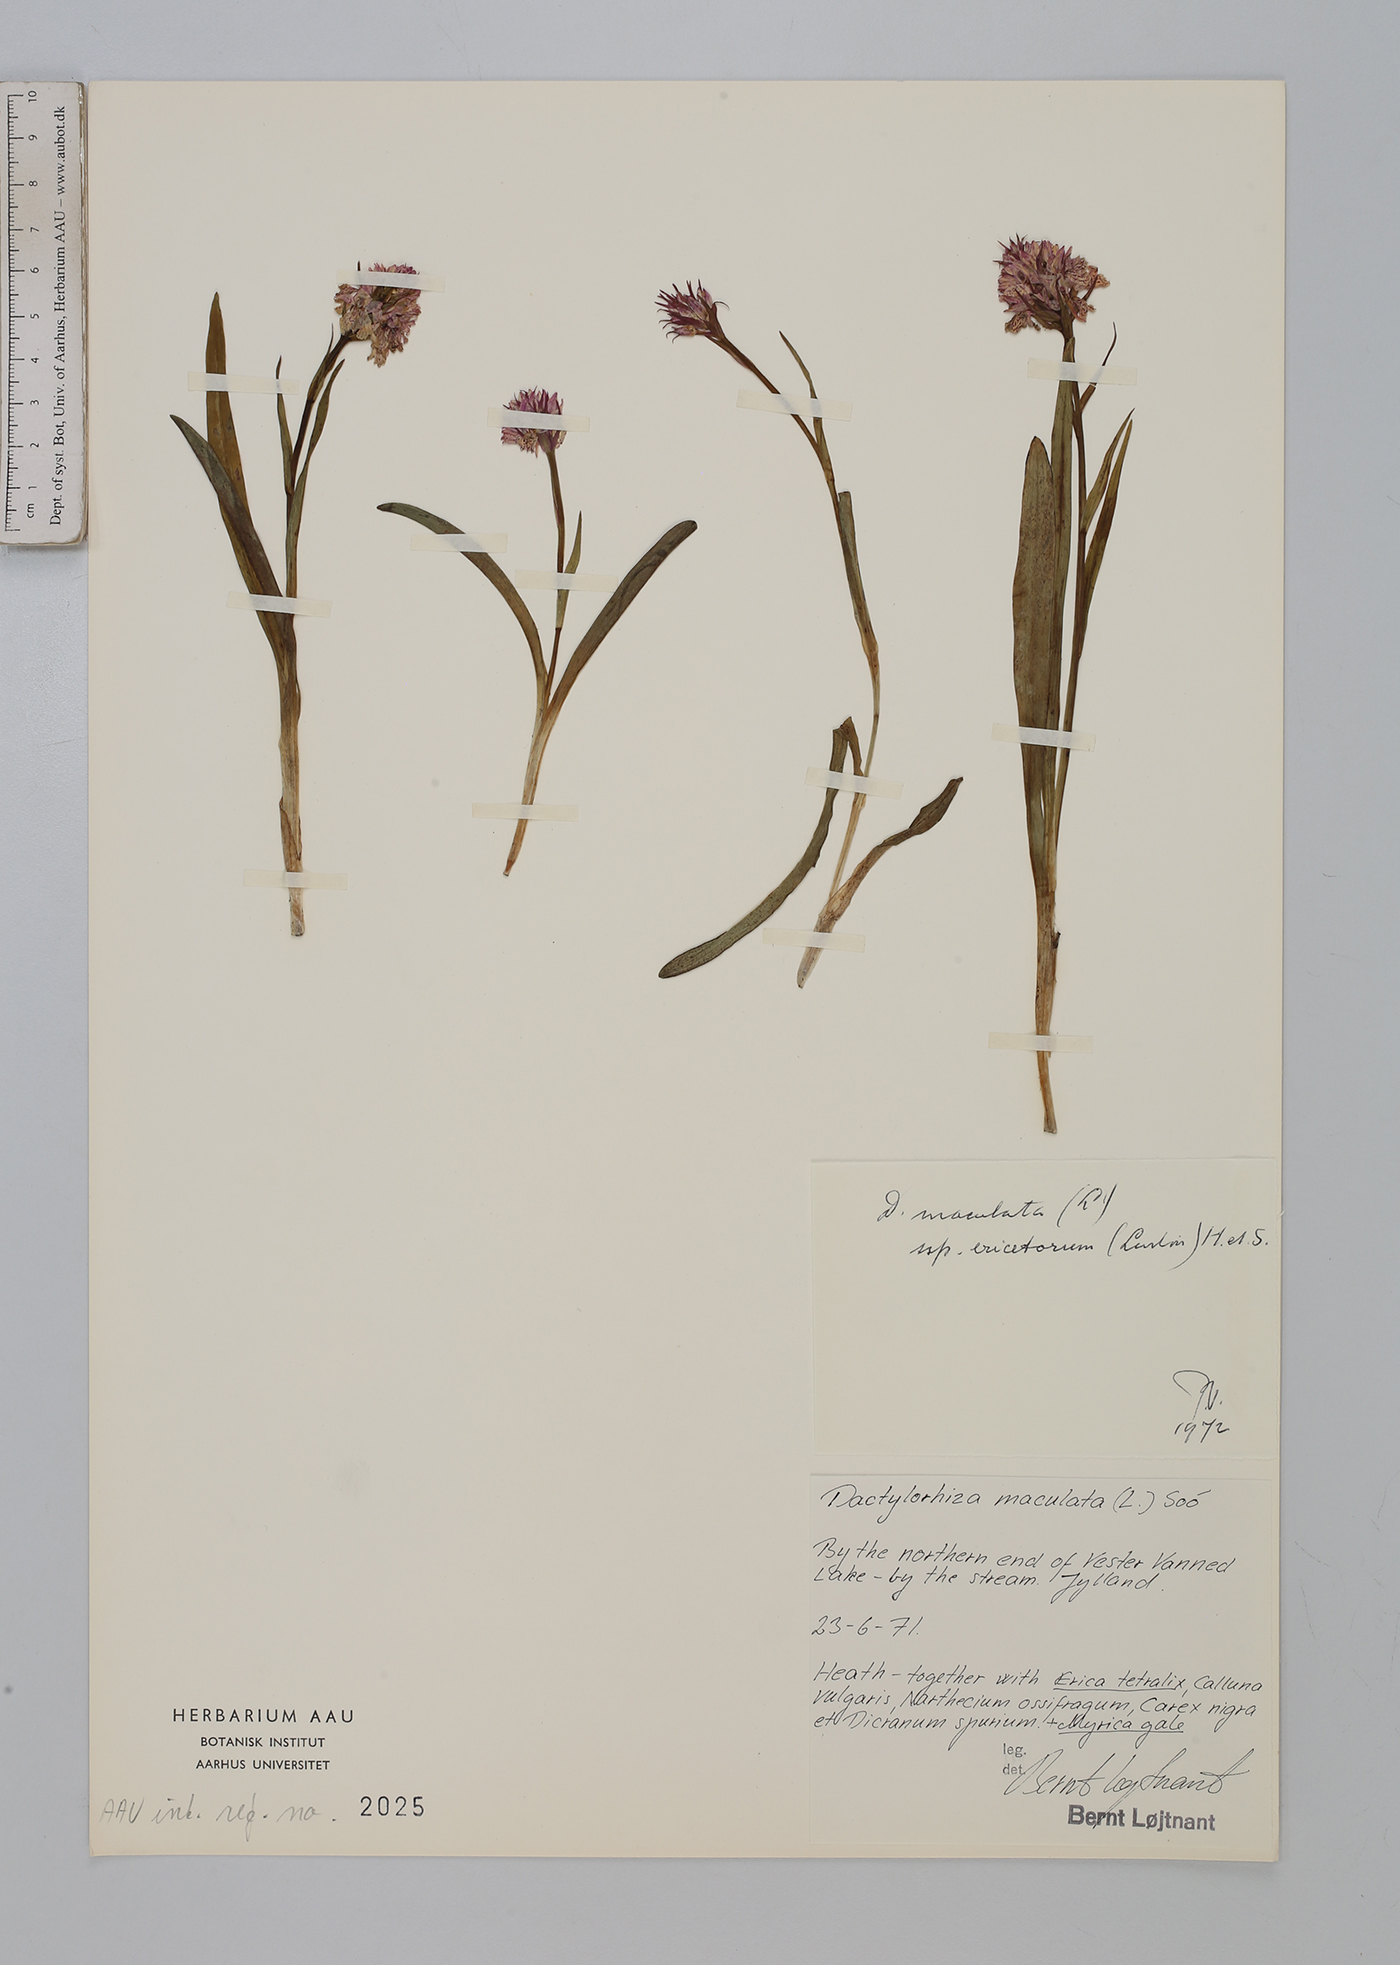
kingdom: Plantae
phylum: Tracheophyta
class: Liliopsida
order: Asparagales
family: Orchidaceae
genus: Dactylorhiza
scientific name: Dactylorhiza maculata
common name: Heath spotted-orchid
